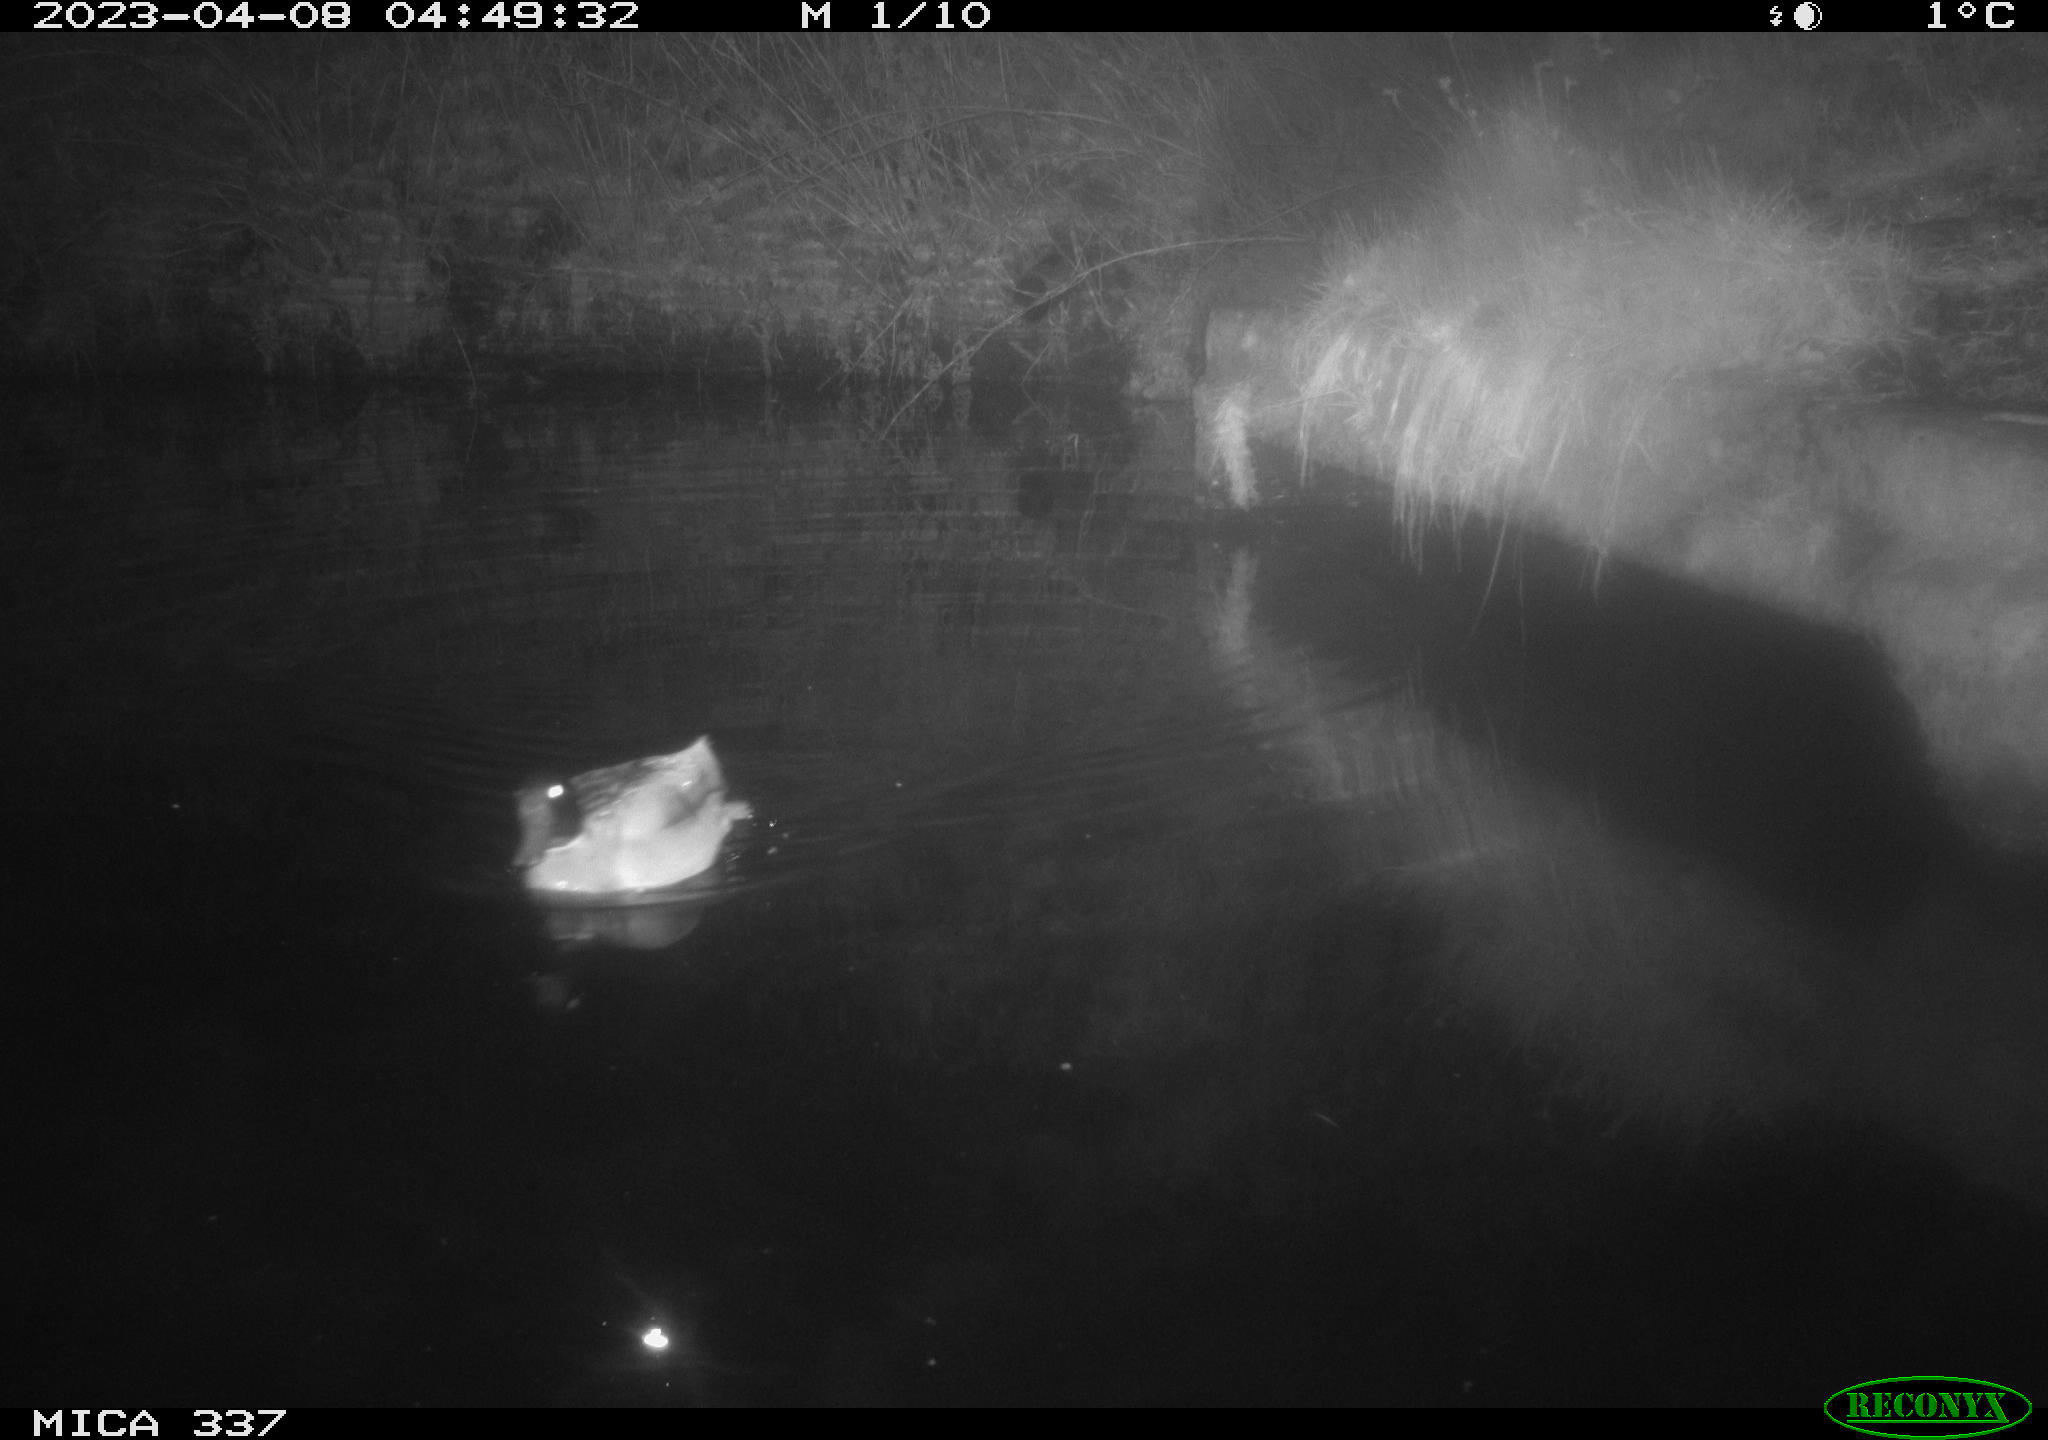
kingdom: Animalia
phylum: Chordata
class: Aves
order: Anseriformes
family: Anatidae
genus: Anas
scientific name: Anas
